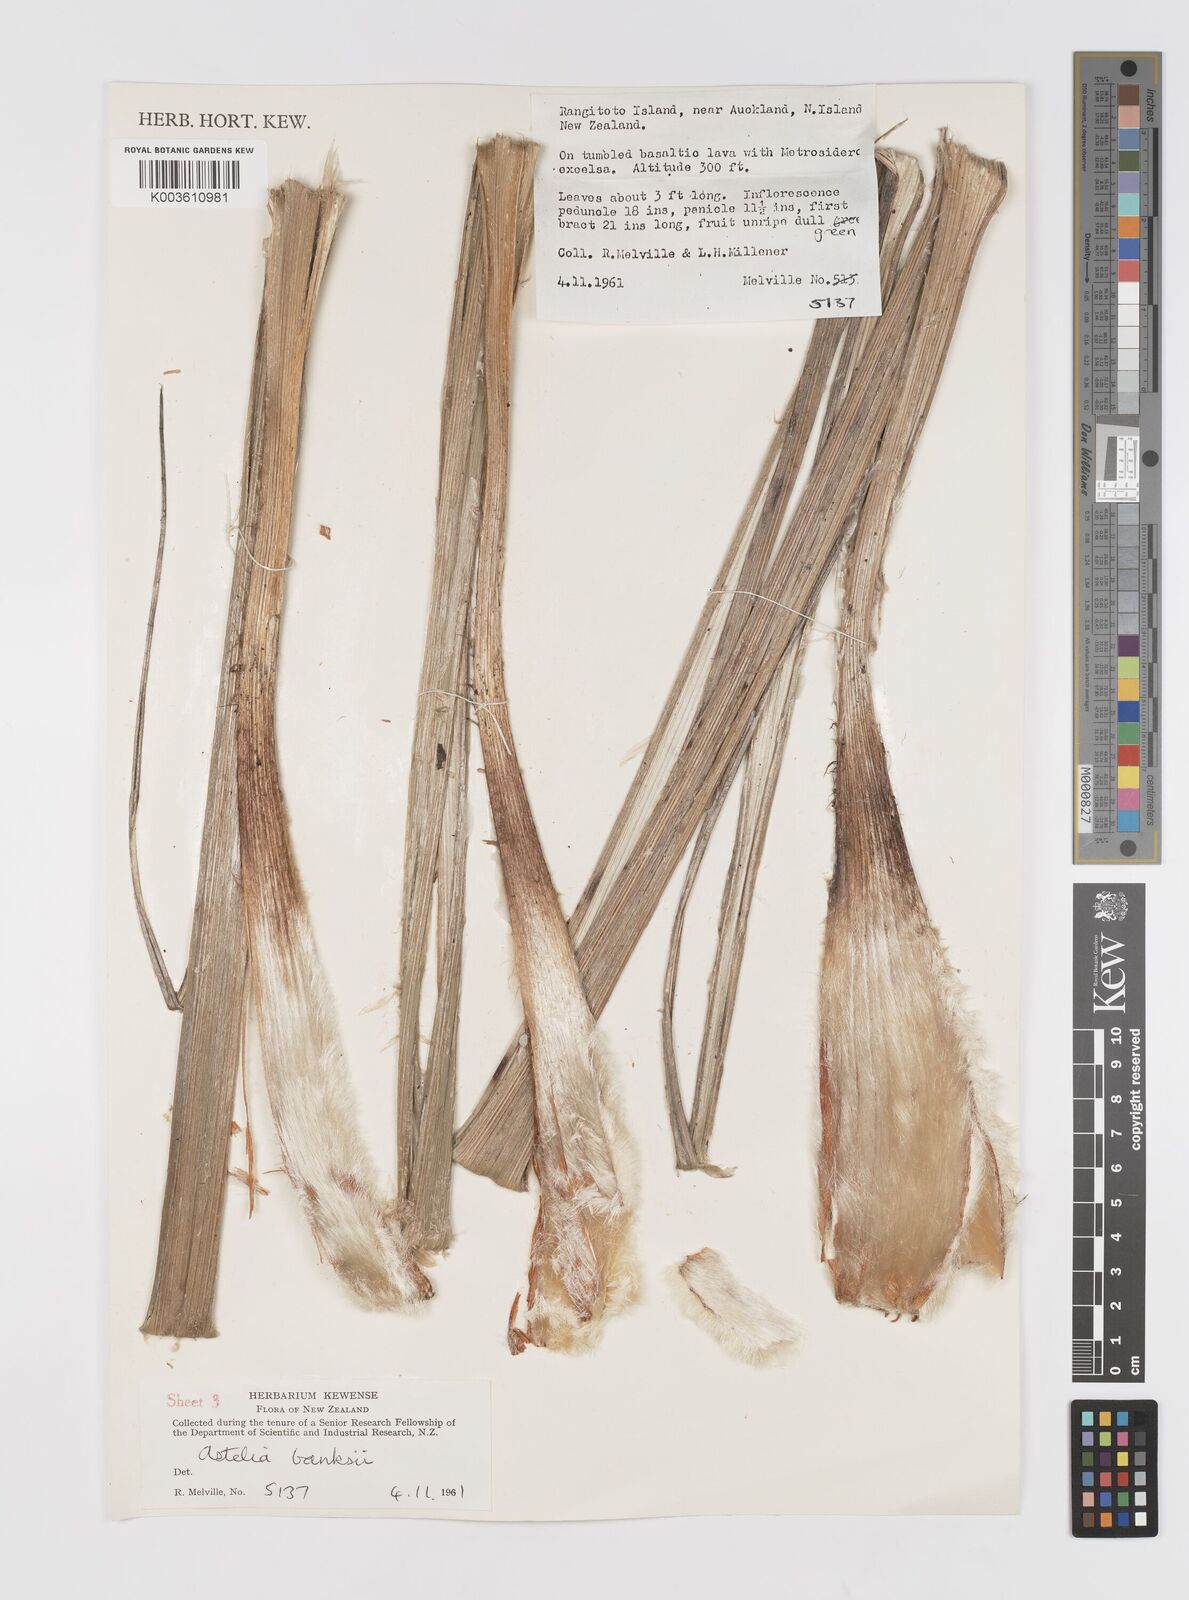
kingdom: Plantae
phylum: Tracheophyta
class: Liliopsida
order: Asparagales
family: Asteliaceae
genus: Astelia
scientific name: Astelia banksii
